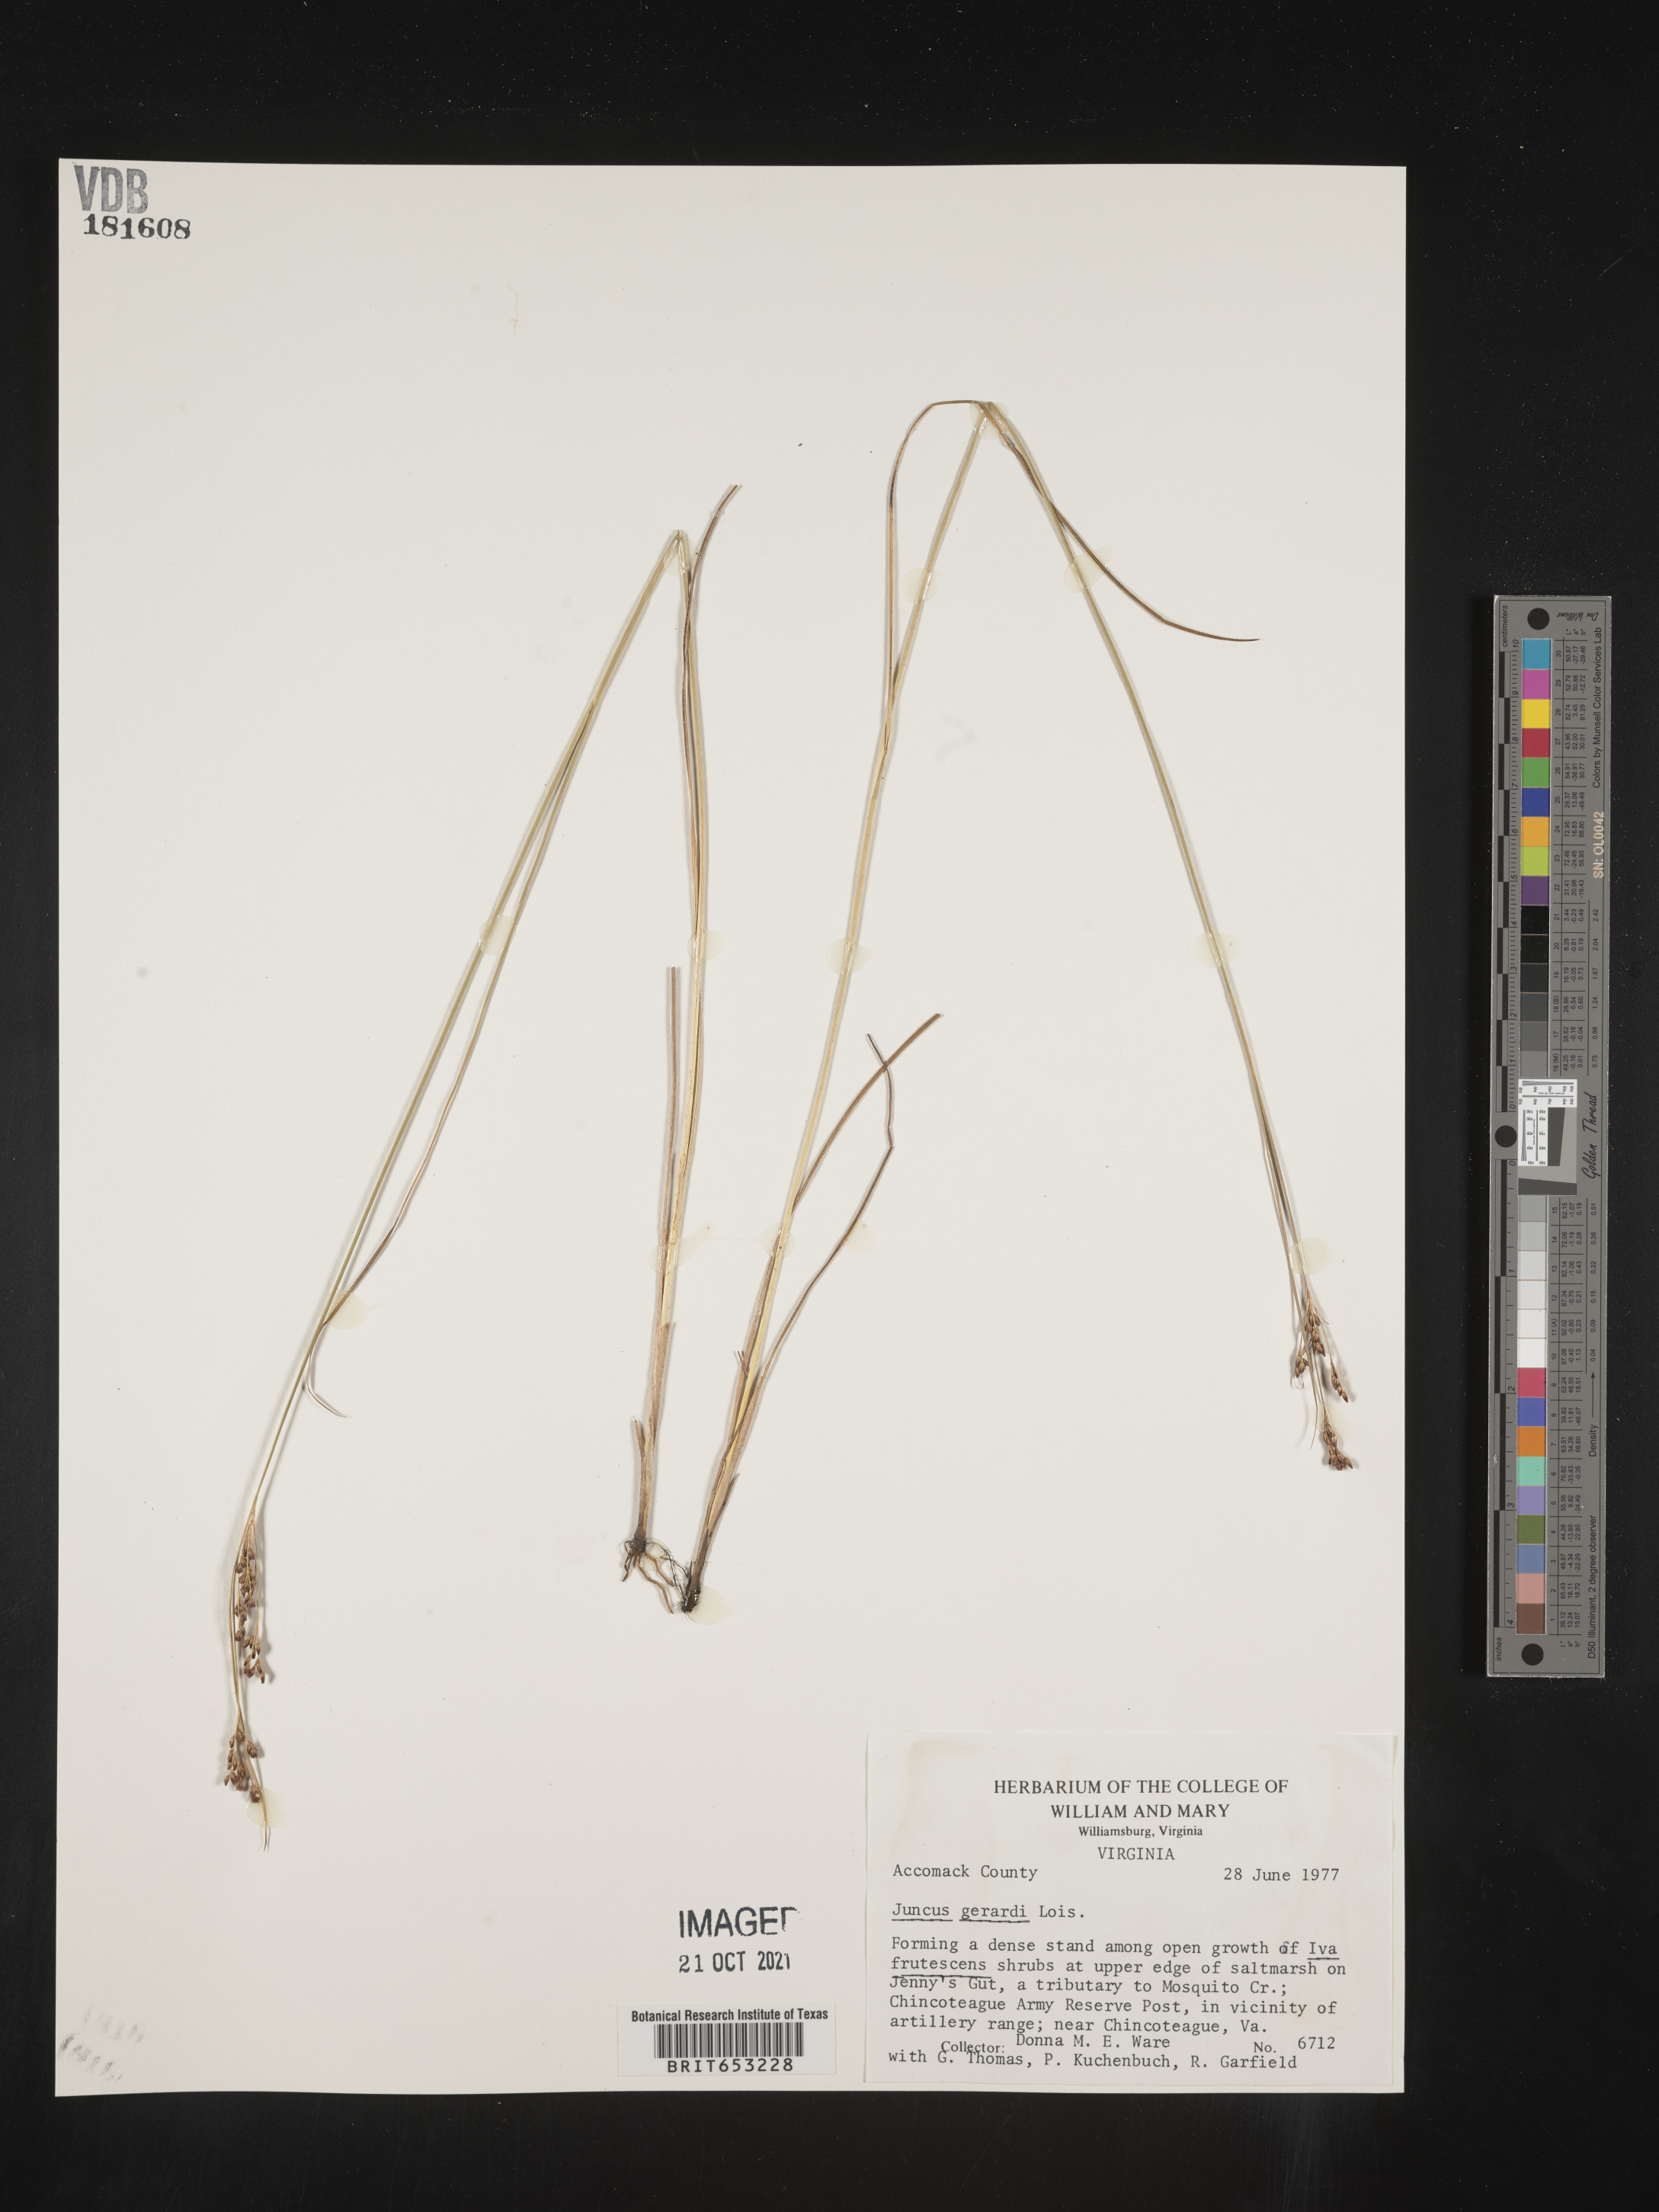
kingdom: Plantae
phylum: Tracheophyta
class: Liliopsida
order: Poales
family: Juncaceae
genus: Juncus
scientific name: Juncus gerardi
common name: Saltmarsh rush
